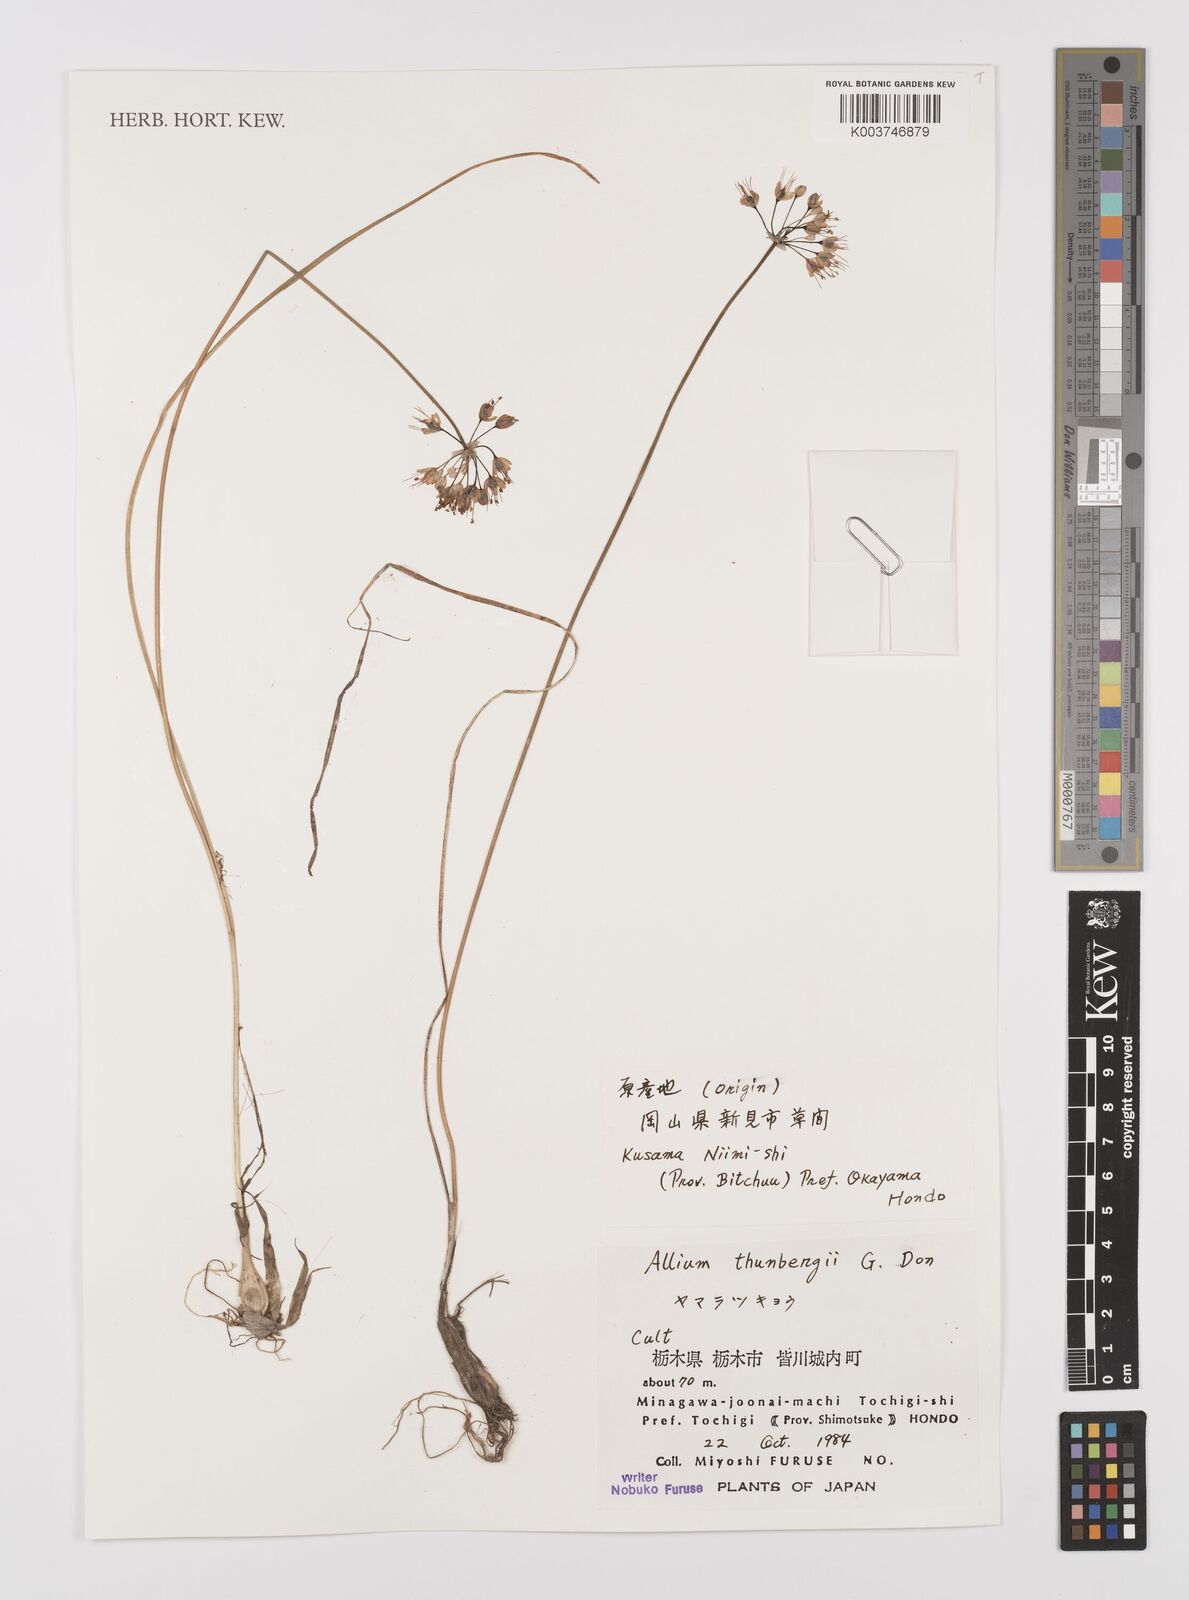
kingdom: Plantae
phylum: Tracheophyta
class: Liliopsida
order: Asparagales
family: Amaryllidaceae
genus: Allium
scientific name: Allium thunbergii
